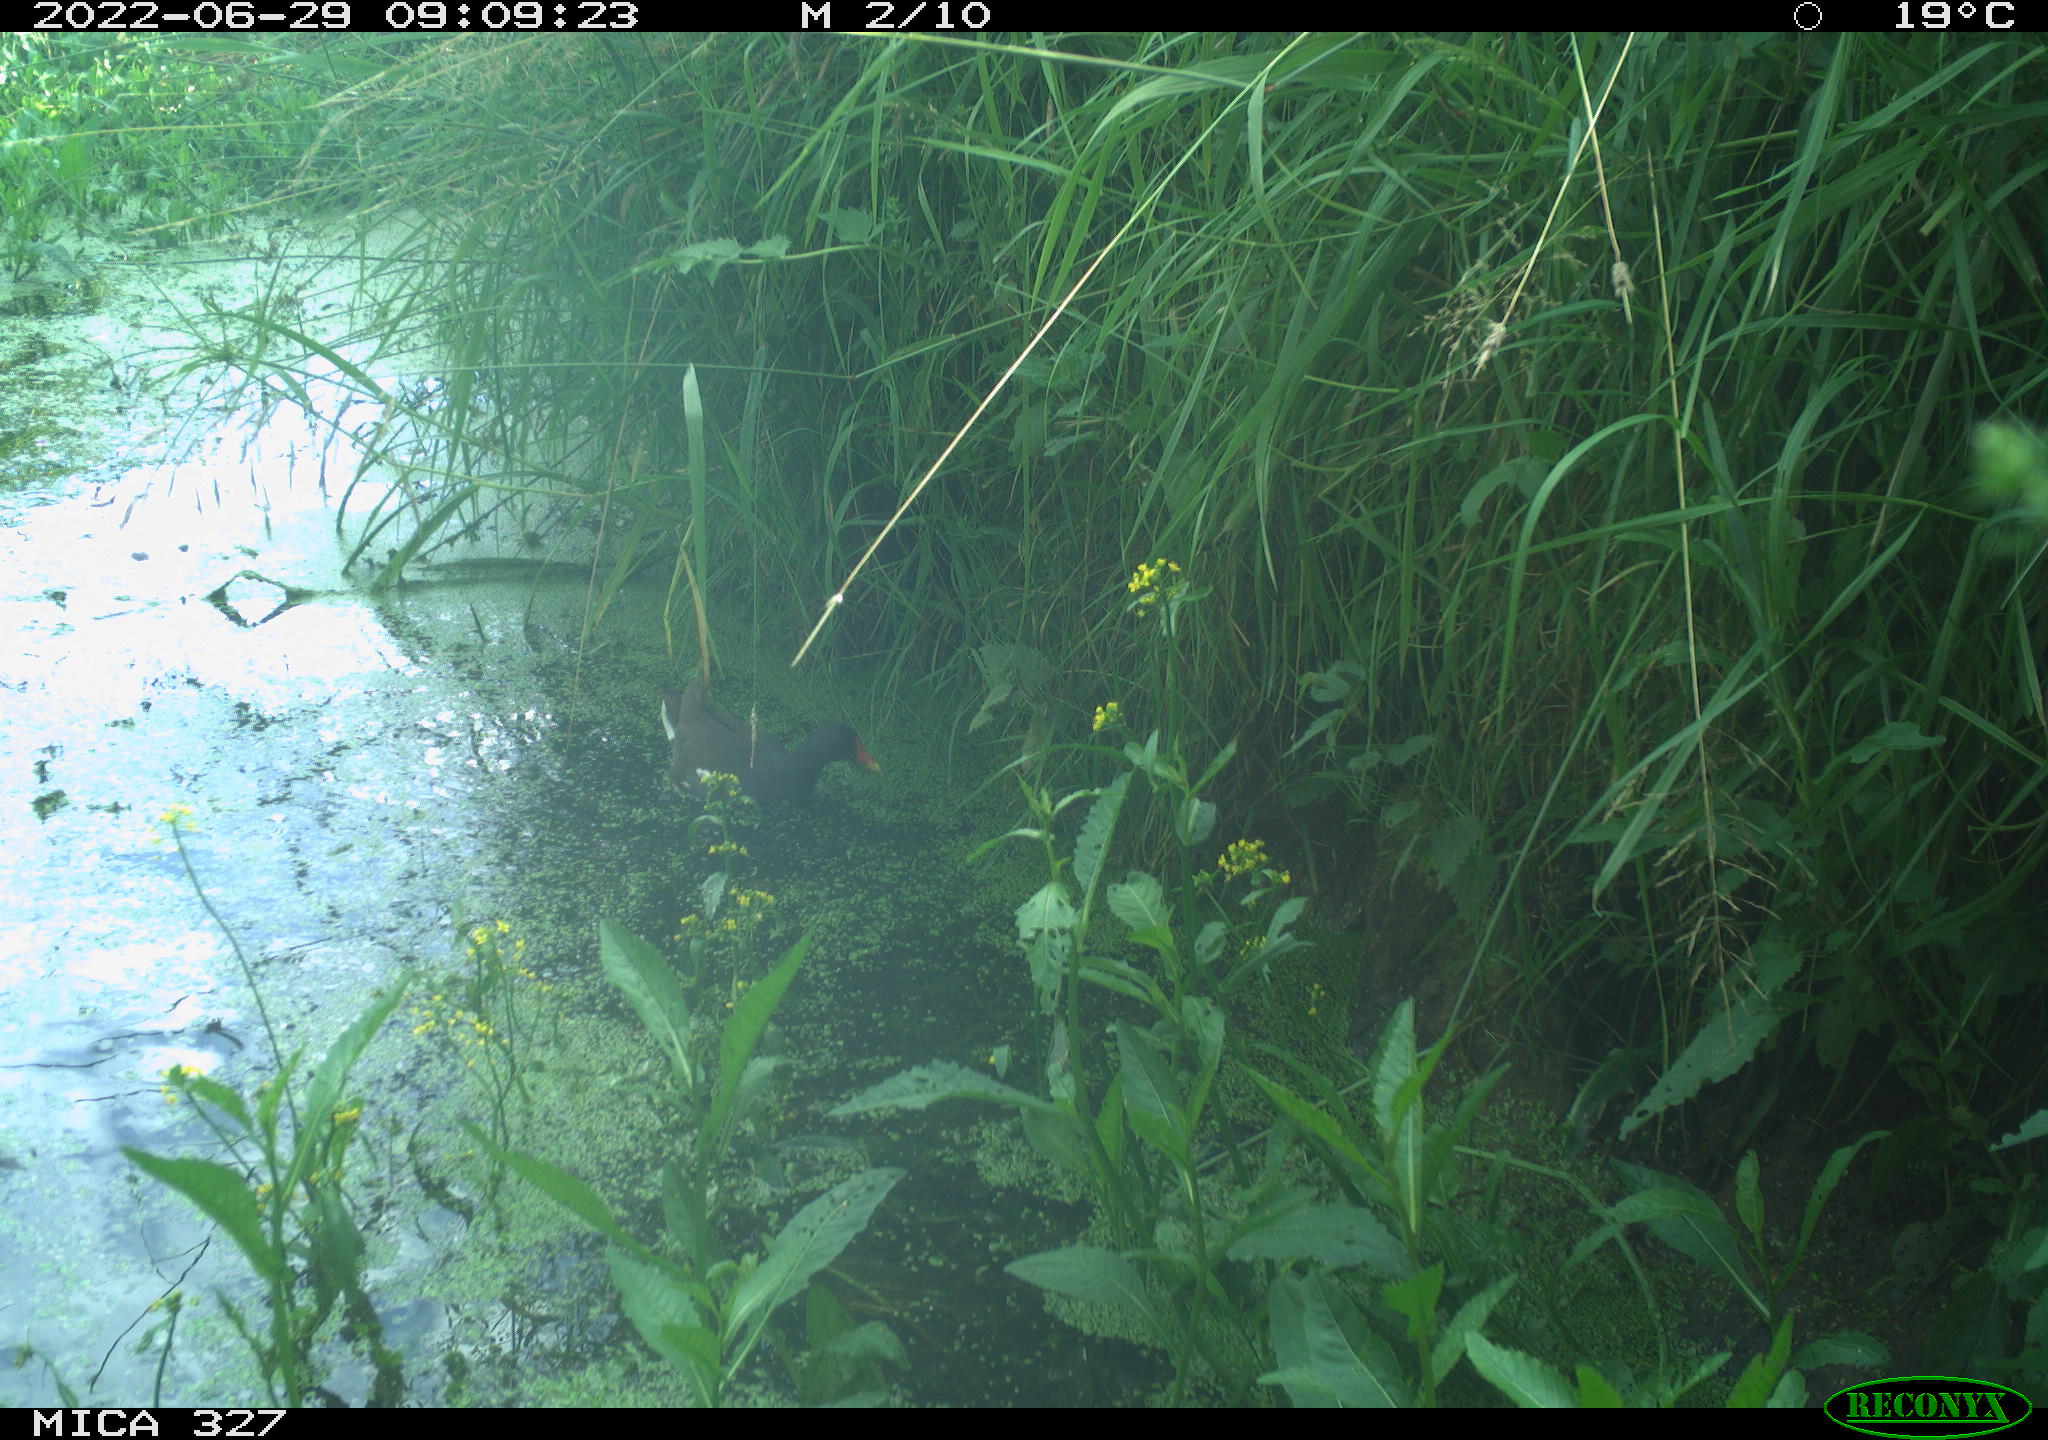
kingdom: Animalia
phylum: Chordata
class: Aves
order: Gruiformes
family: Rallidae
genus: Gallinula
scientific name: Gallinula chloropus
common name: Common moorhen
